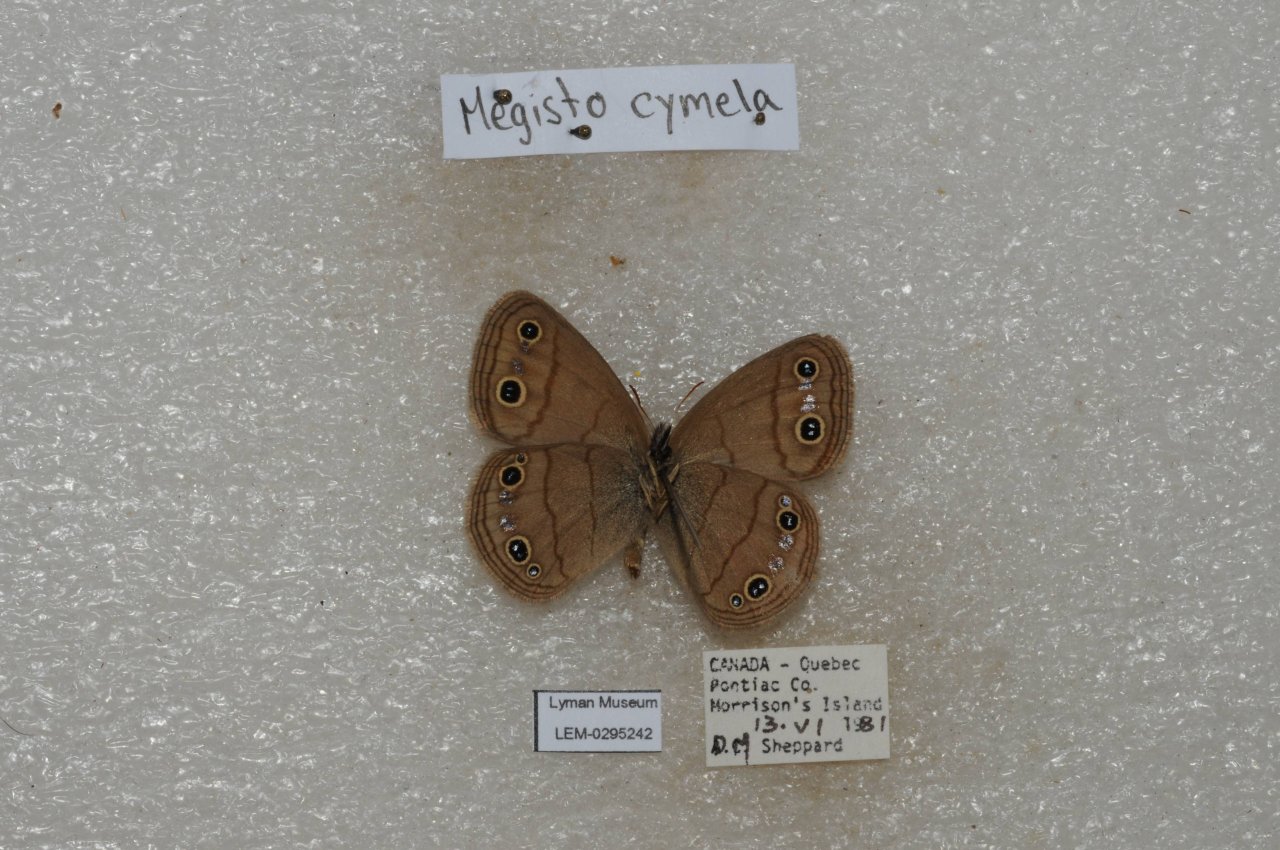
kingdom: Animalia
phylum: Arthropoda
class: Insecta
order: Lepidoptera
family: Nymphalidae
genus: Euptychia
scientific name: Euptychia cymela
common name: Little Wood Satyr
